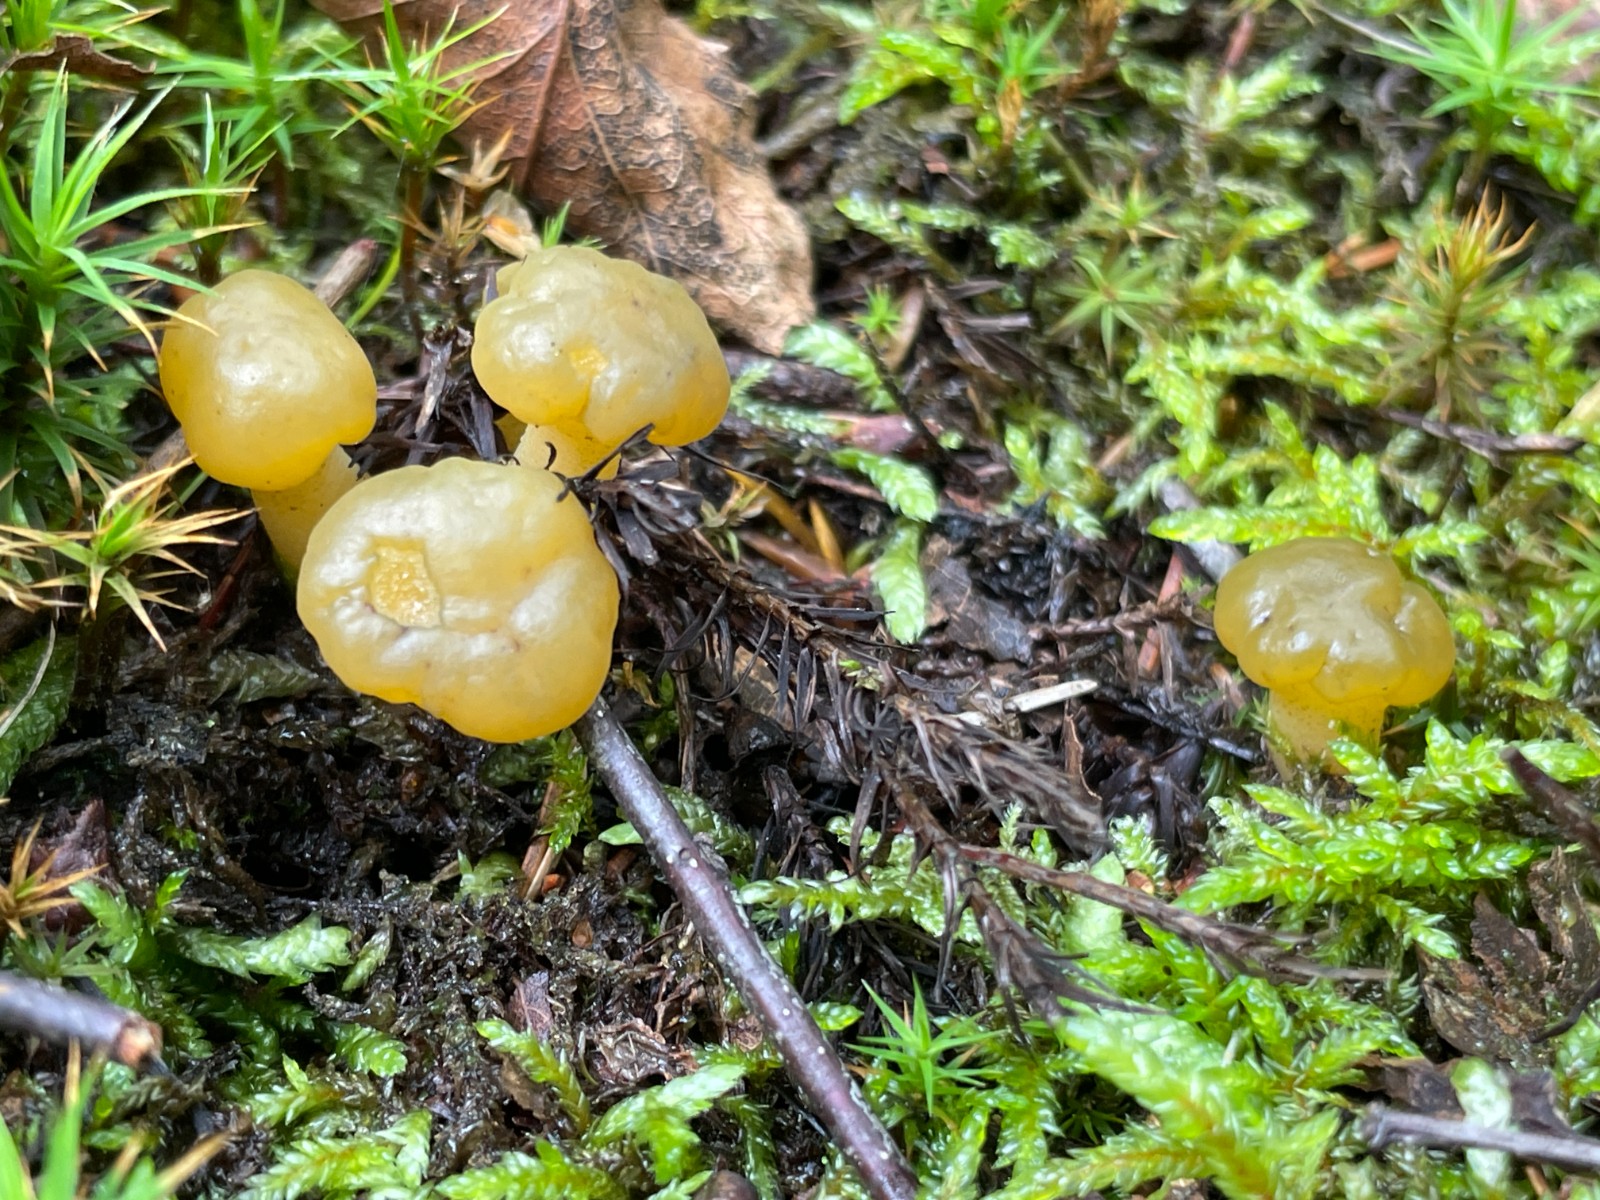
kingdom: Fungi
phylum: Ascomycota
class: Leotiomycetes
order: Leotiales
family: Leotiaceae
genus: Leotia
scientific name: Leotia lubrica
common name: ravsvamp
